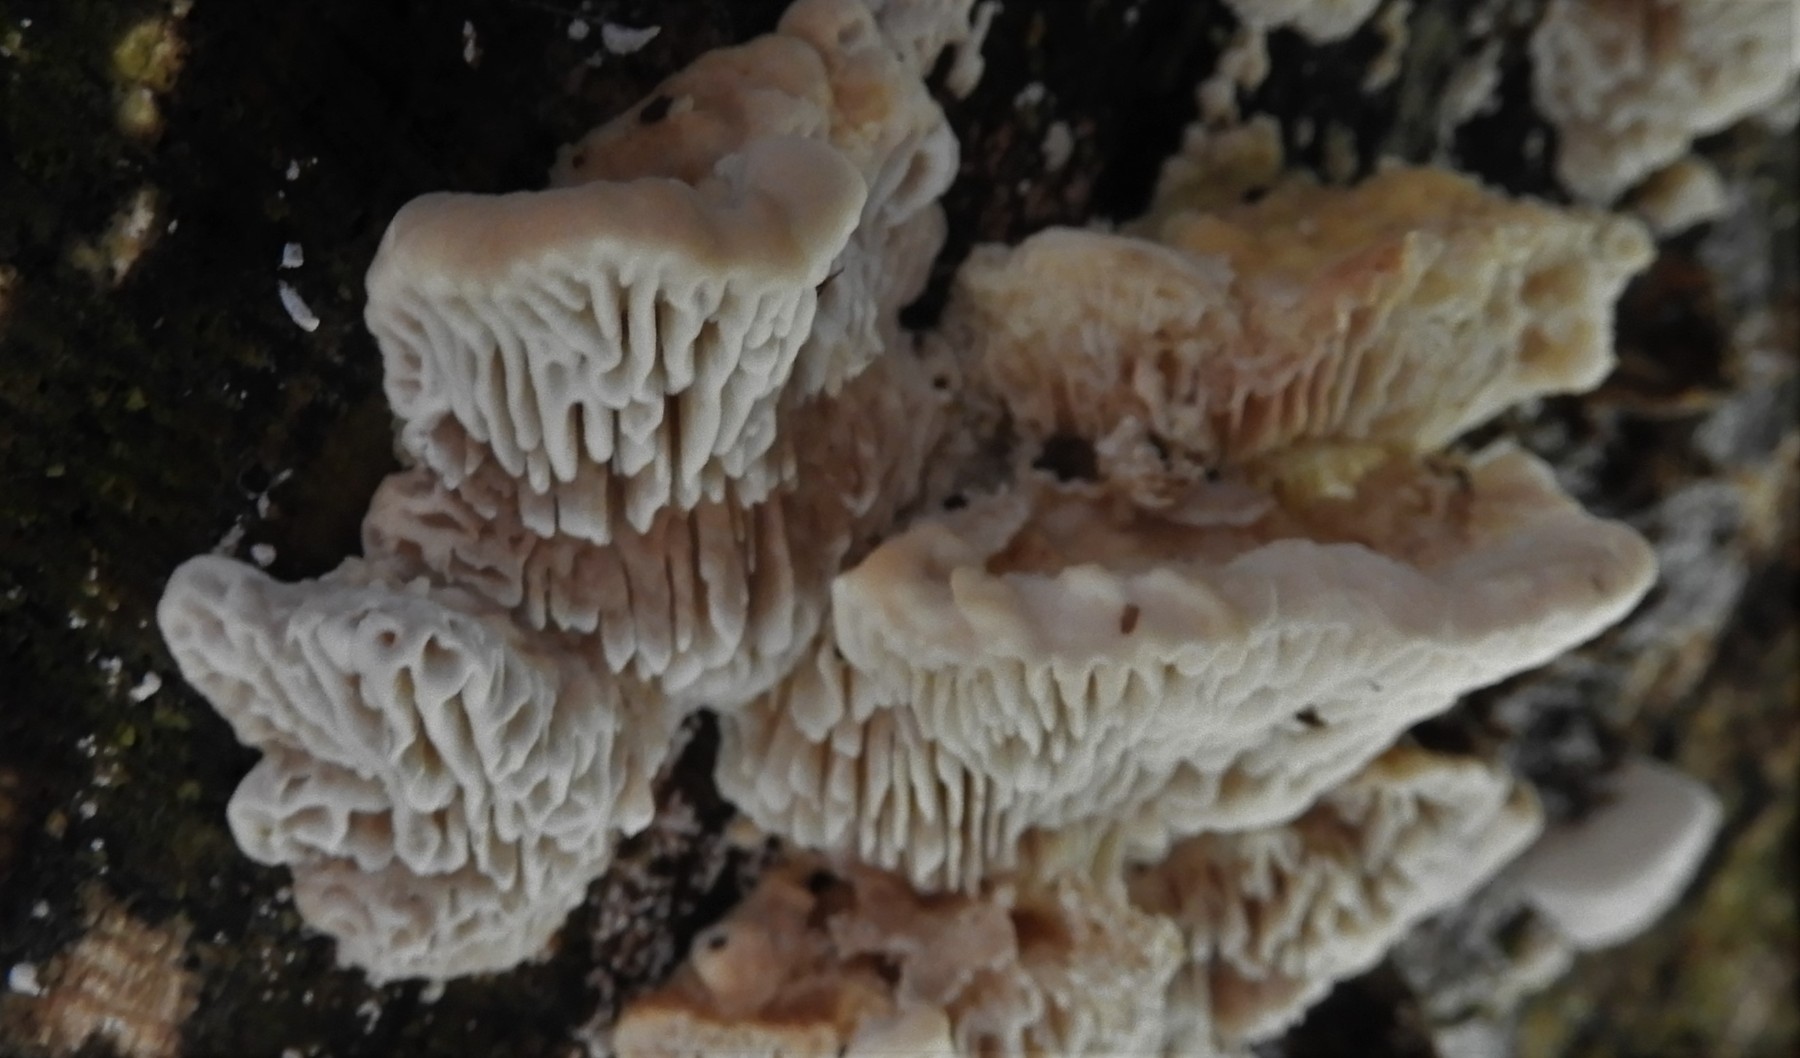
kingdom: Fungi
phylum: Basidiomycota
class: Agaricomycetes
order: Polyporales
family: Polyporaceae
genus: Lenzites
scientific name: Lenzites betulinus
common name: birke-læderporesvamp
